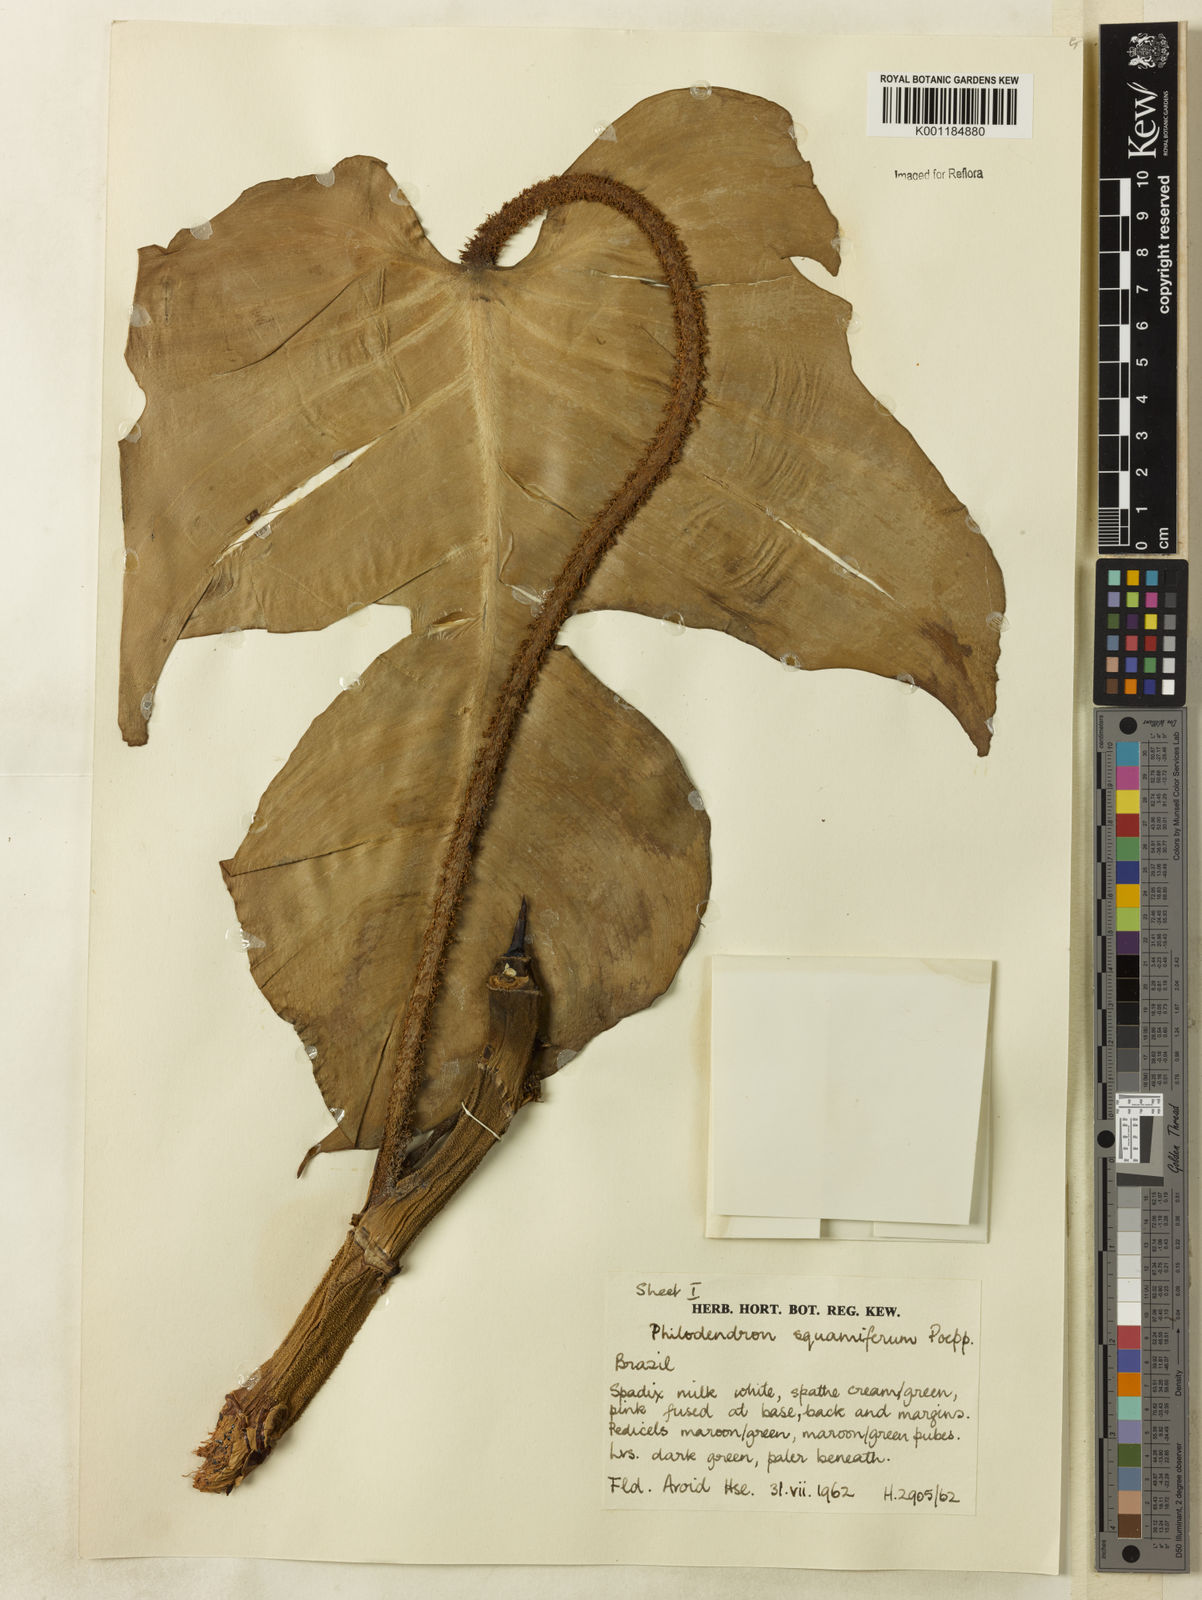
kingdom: Plantae
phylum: Tracheophyta
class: Liliopsida
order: Alismatales
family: Araceae
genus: Philodendron
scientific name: Philodendron squamiferum
